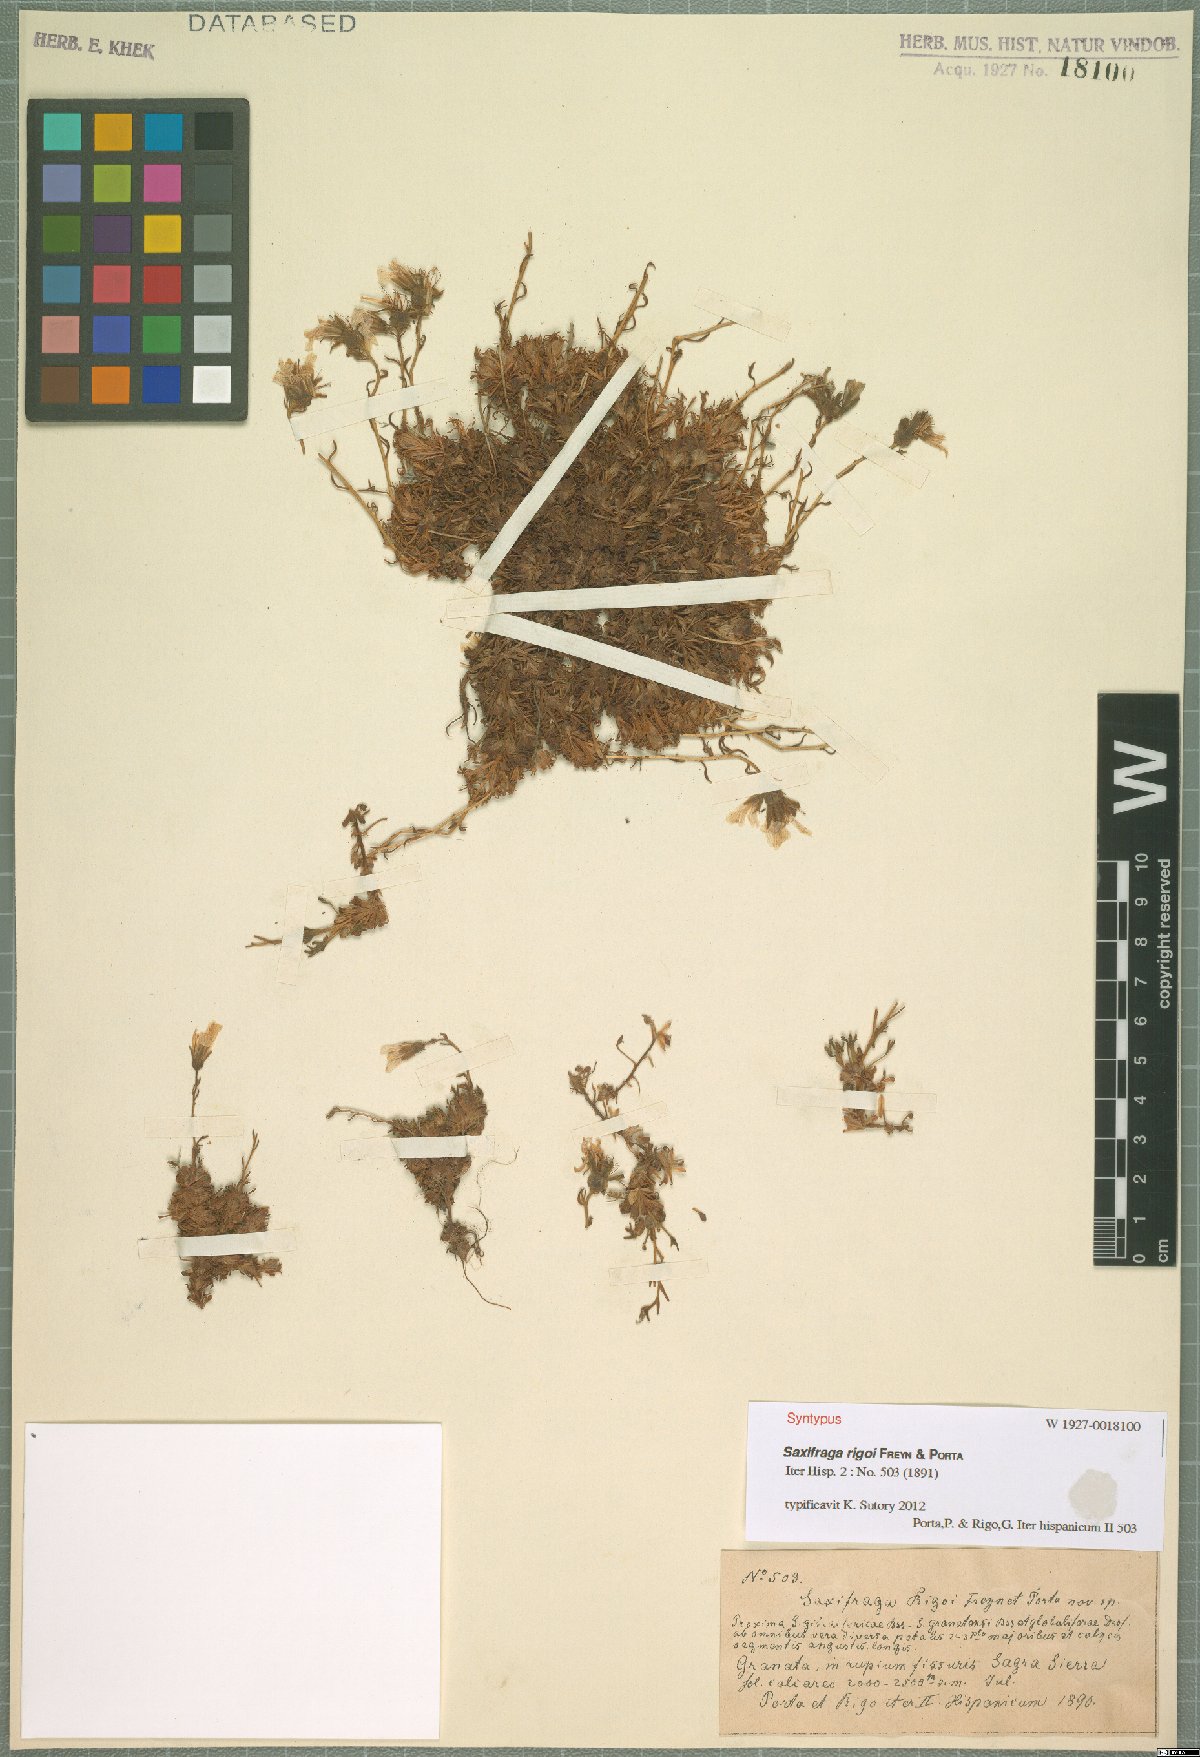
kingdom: Plantae
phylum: Tracheophyta
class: Magnoliopsida
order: Saxifragales
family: Saxifragaceae
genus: Saxifraga
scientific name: Saxifraga rigoi
